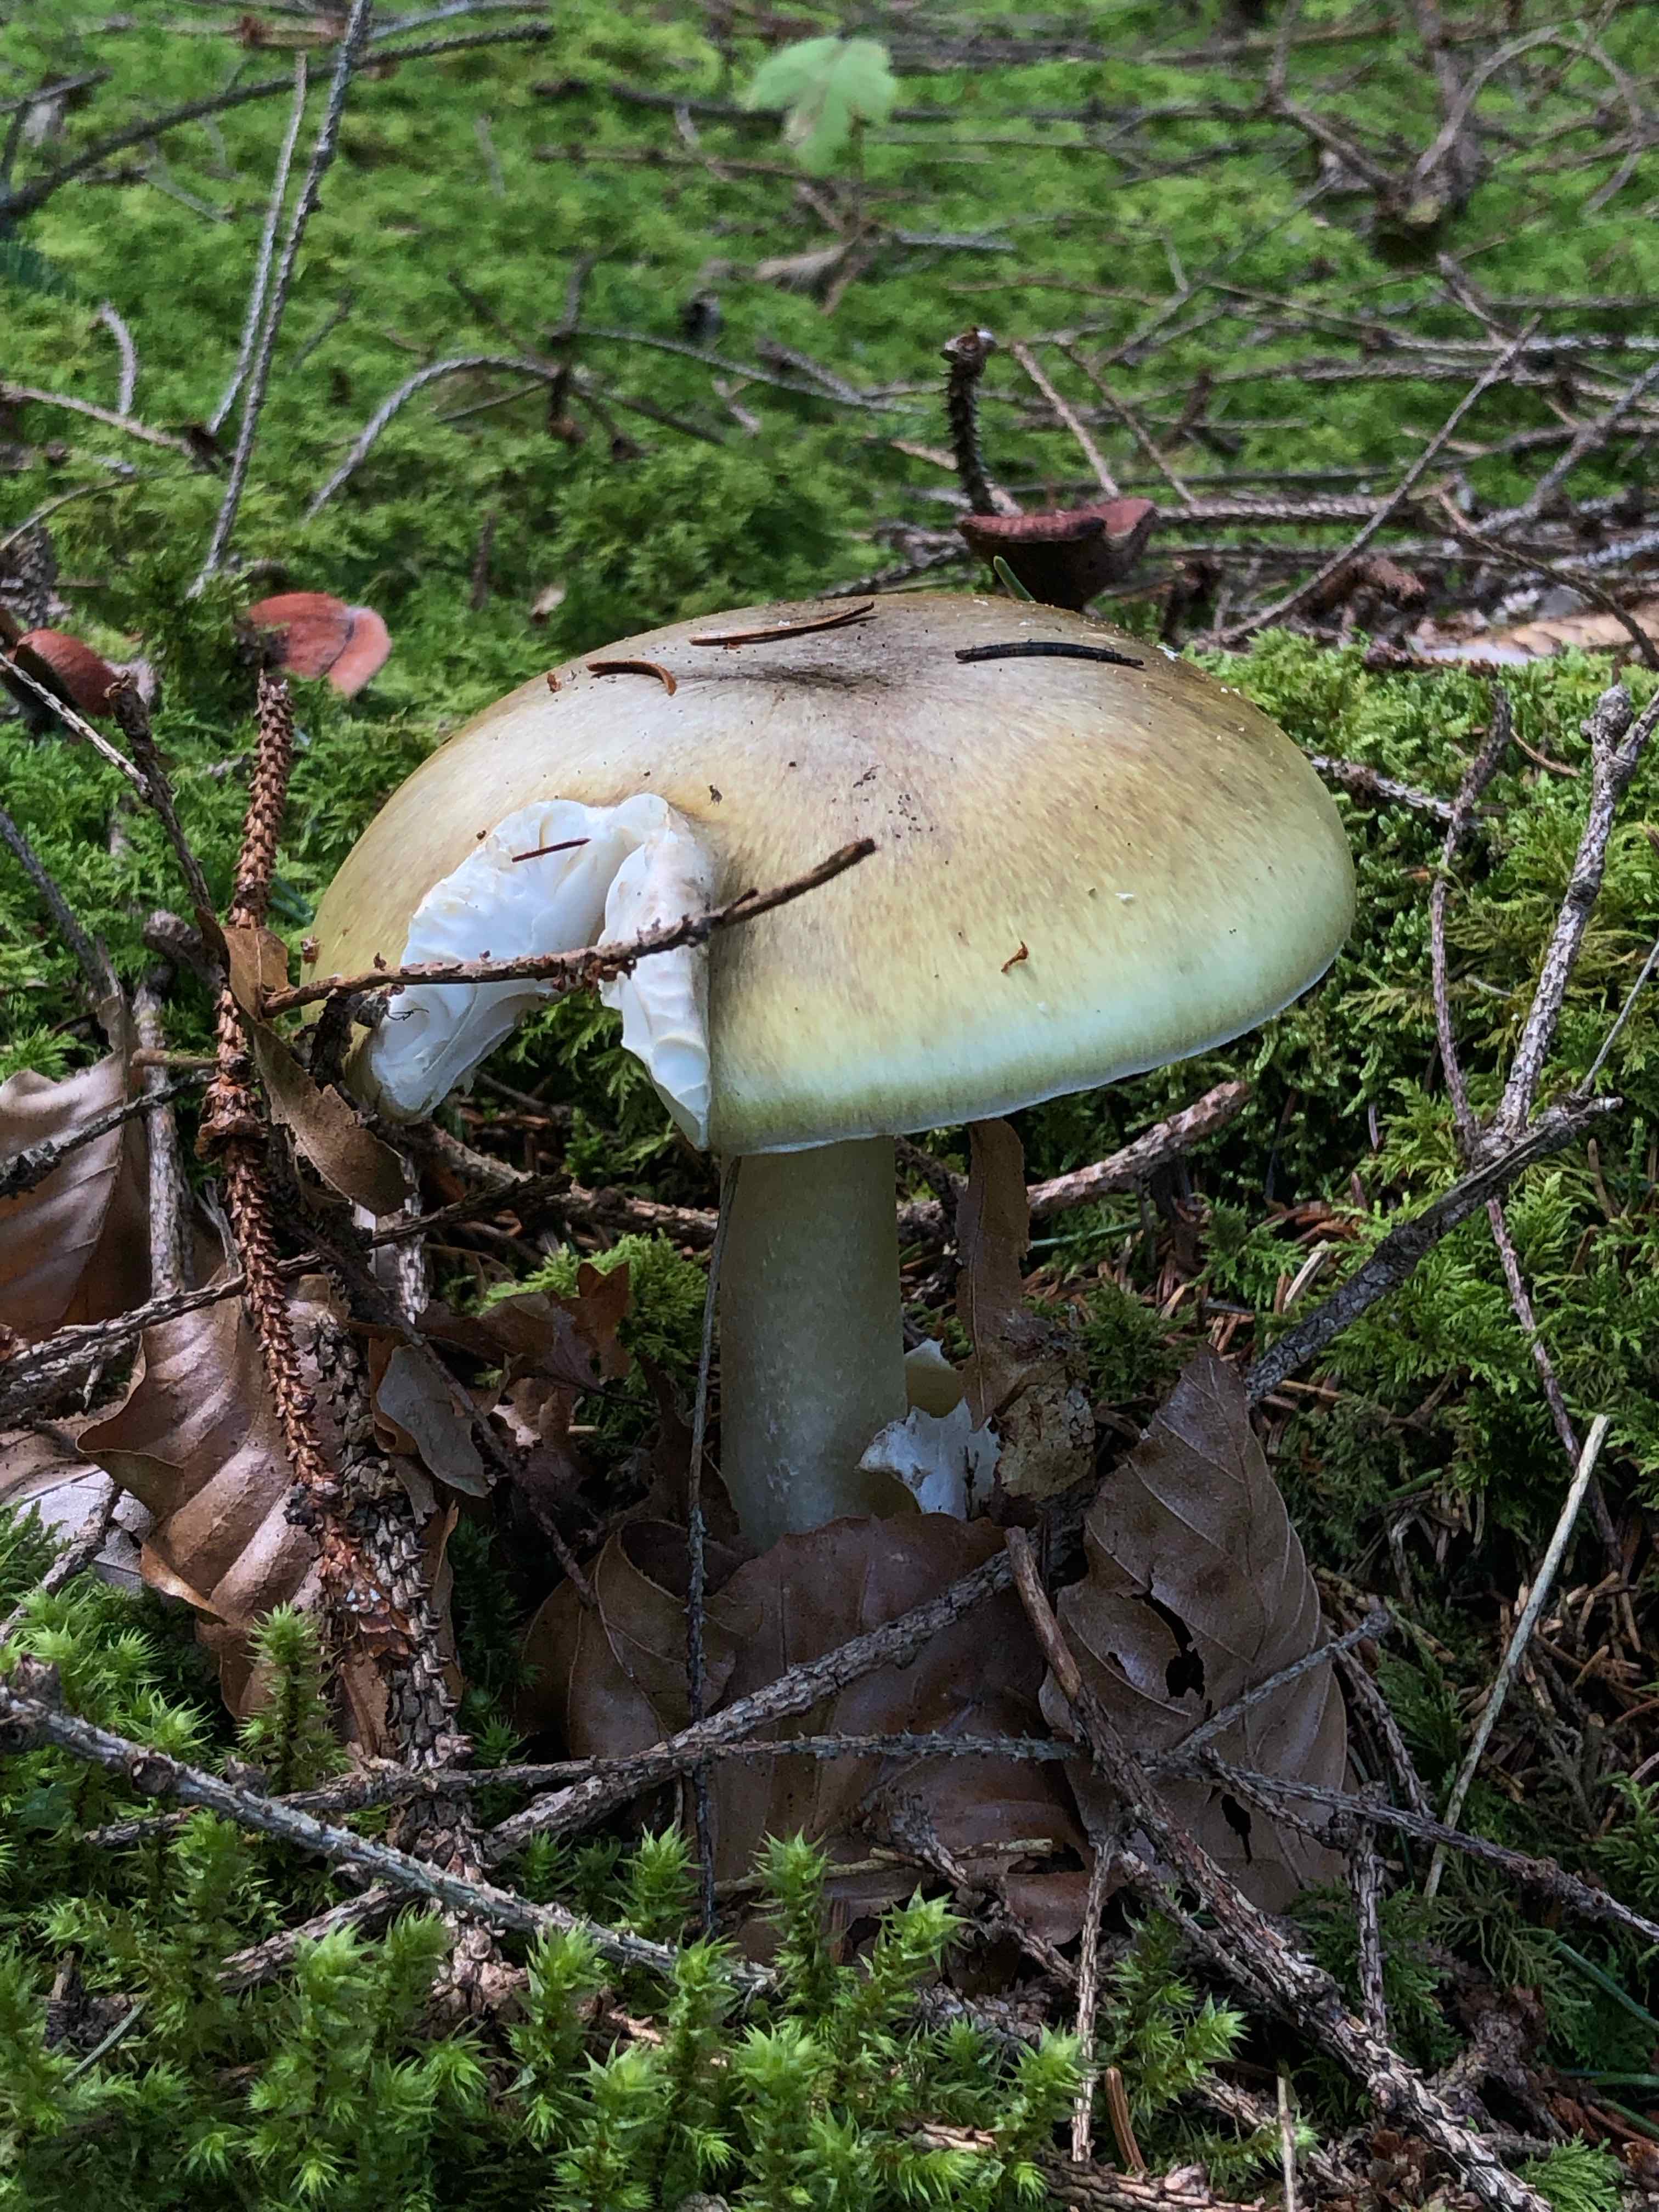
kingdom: Fungi
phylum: Basidiomycota
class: Agaricomycetes
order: Agaricales
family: Amanitaceae
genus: Amanita
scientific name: Amanita phalloides
